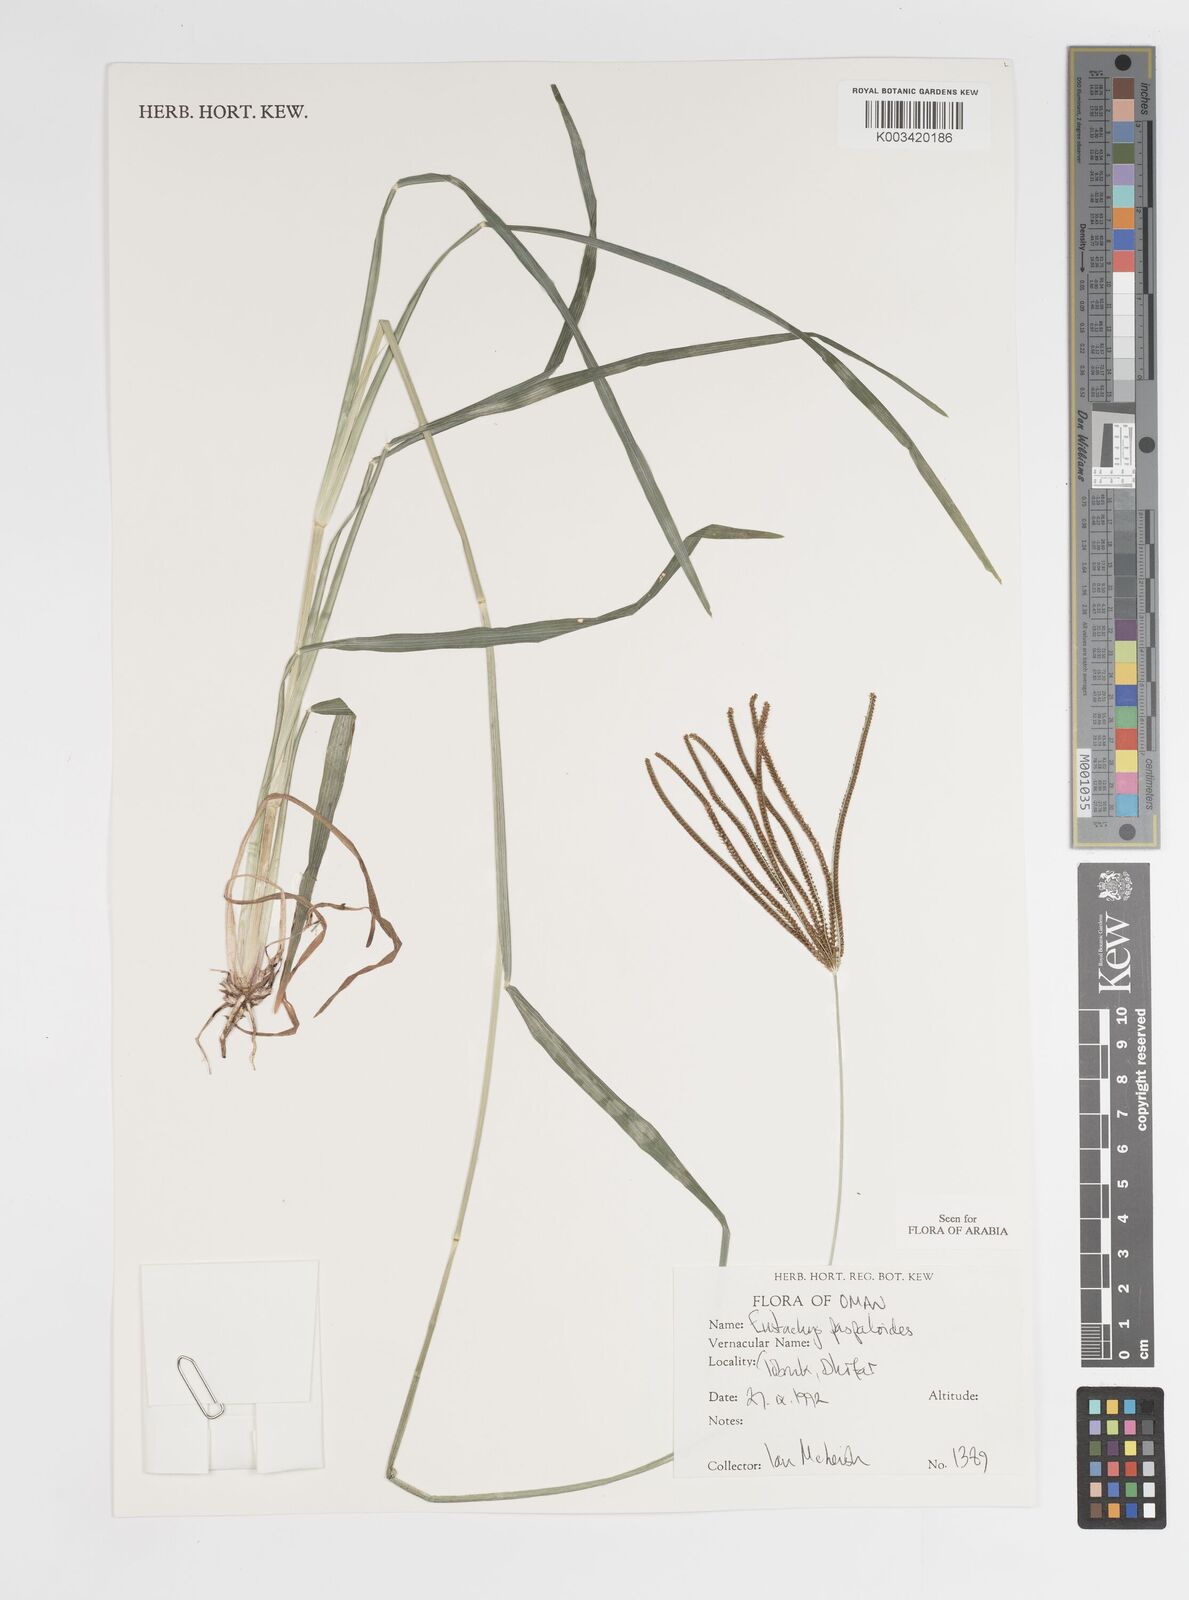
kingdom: Plantae
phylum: Tracheophyta
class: Liliopsida
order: Poales
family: Poaceae
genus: Eustachys
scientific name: Eustachys paspaloides
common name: Caribbean fingergrass
